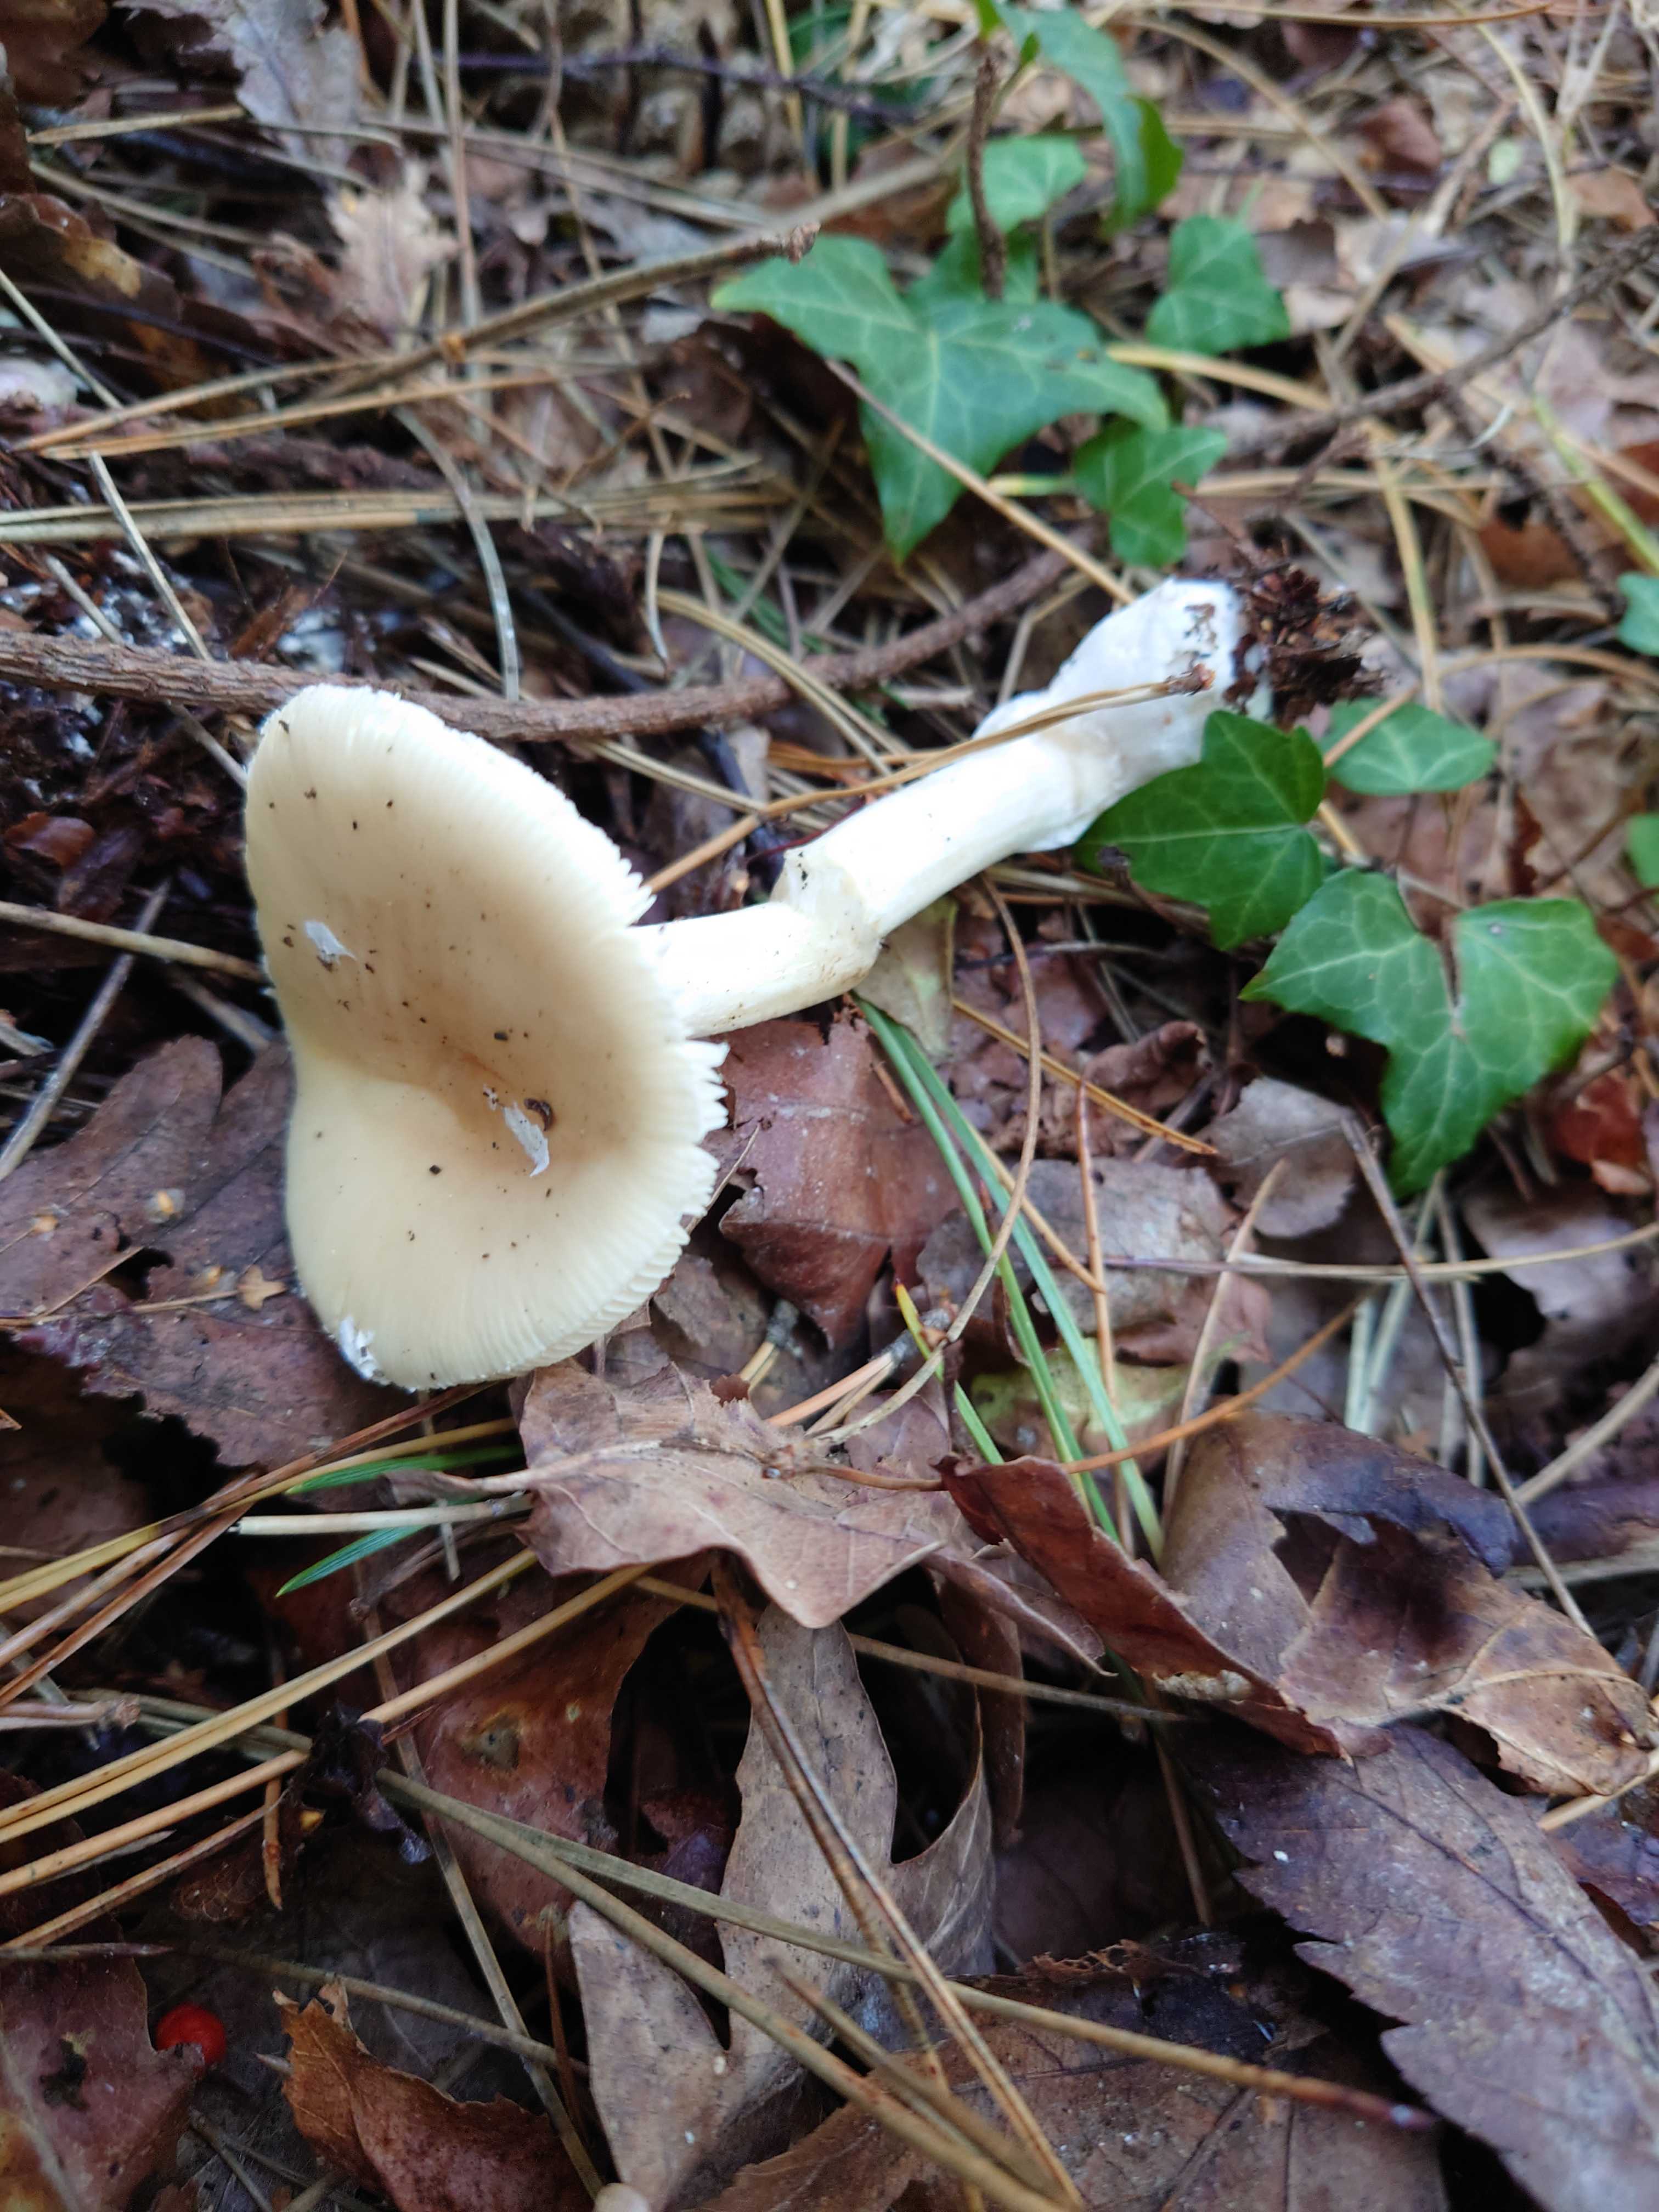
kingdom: Fungi
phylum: Basidiomycota
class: Agaricomycetes
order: Agaricales
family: Amanitaceae
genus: Amanita
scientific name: Amanita gemmata
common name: okkergul fluesvamp
